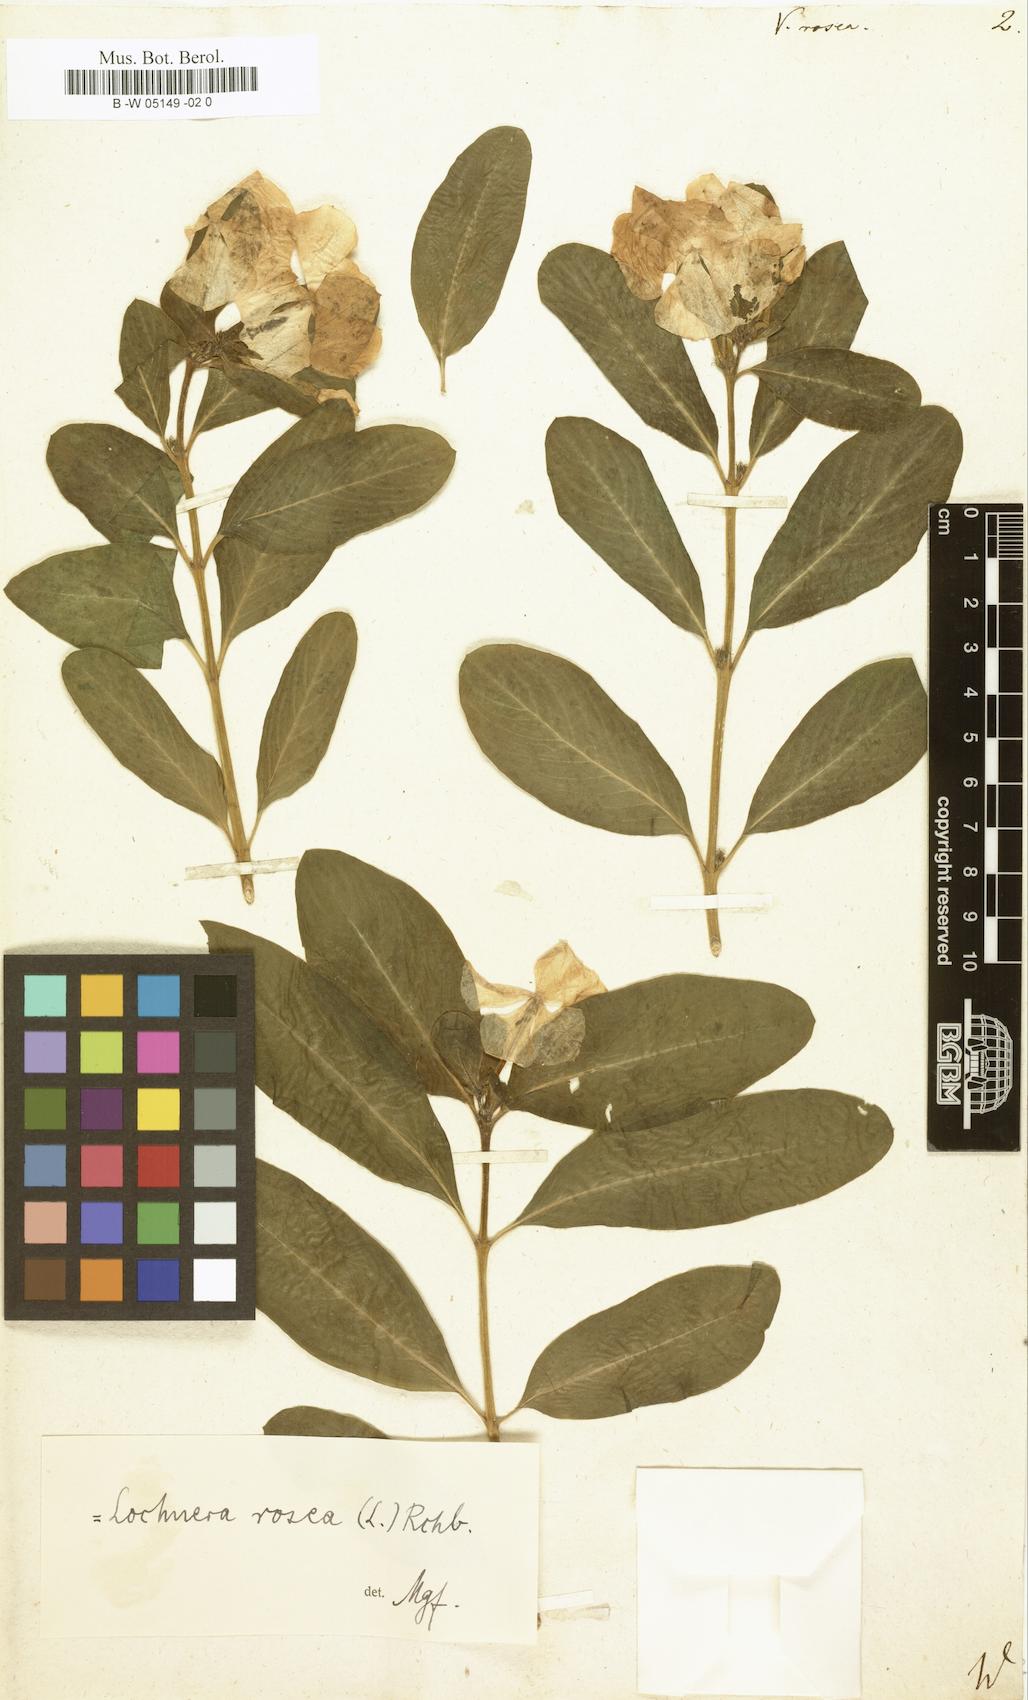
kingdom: Plantae
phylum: Tracheophyta
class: Magnoliopsida
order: Gentianales
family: Apocynaceae
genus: Catharanthus
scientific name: Catharanthus roseus
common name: Madagascar periwinkle
